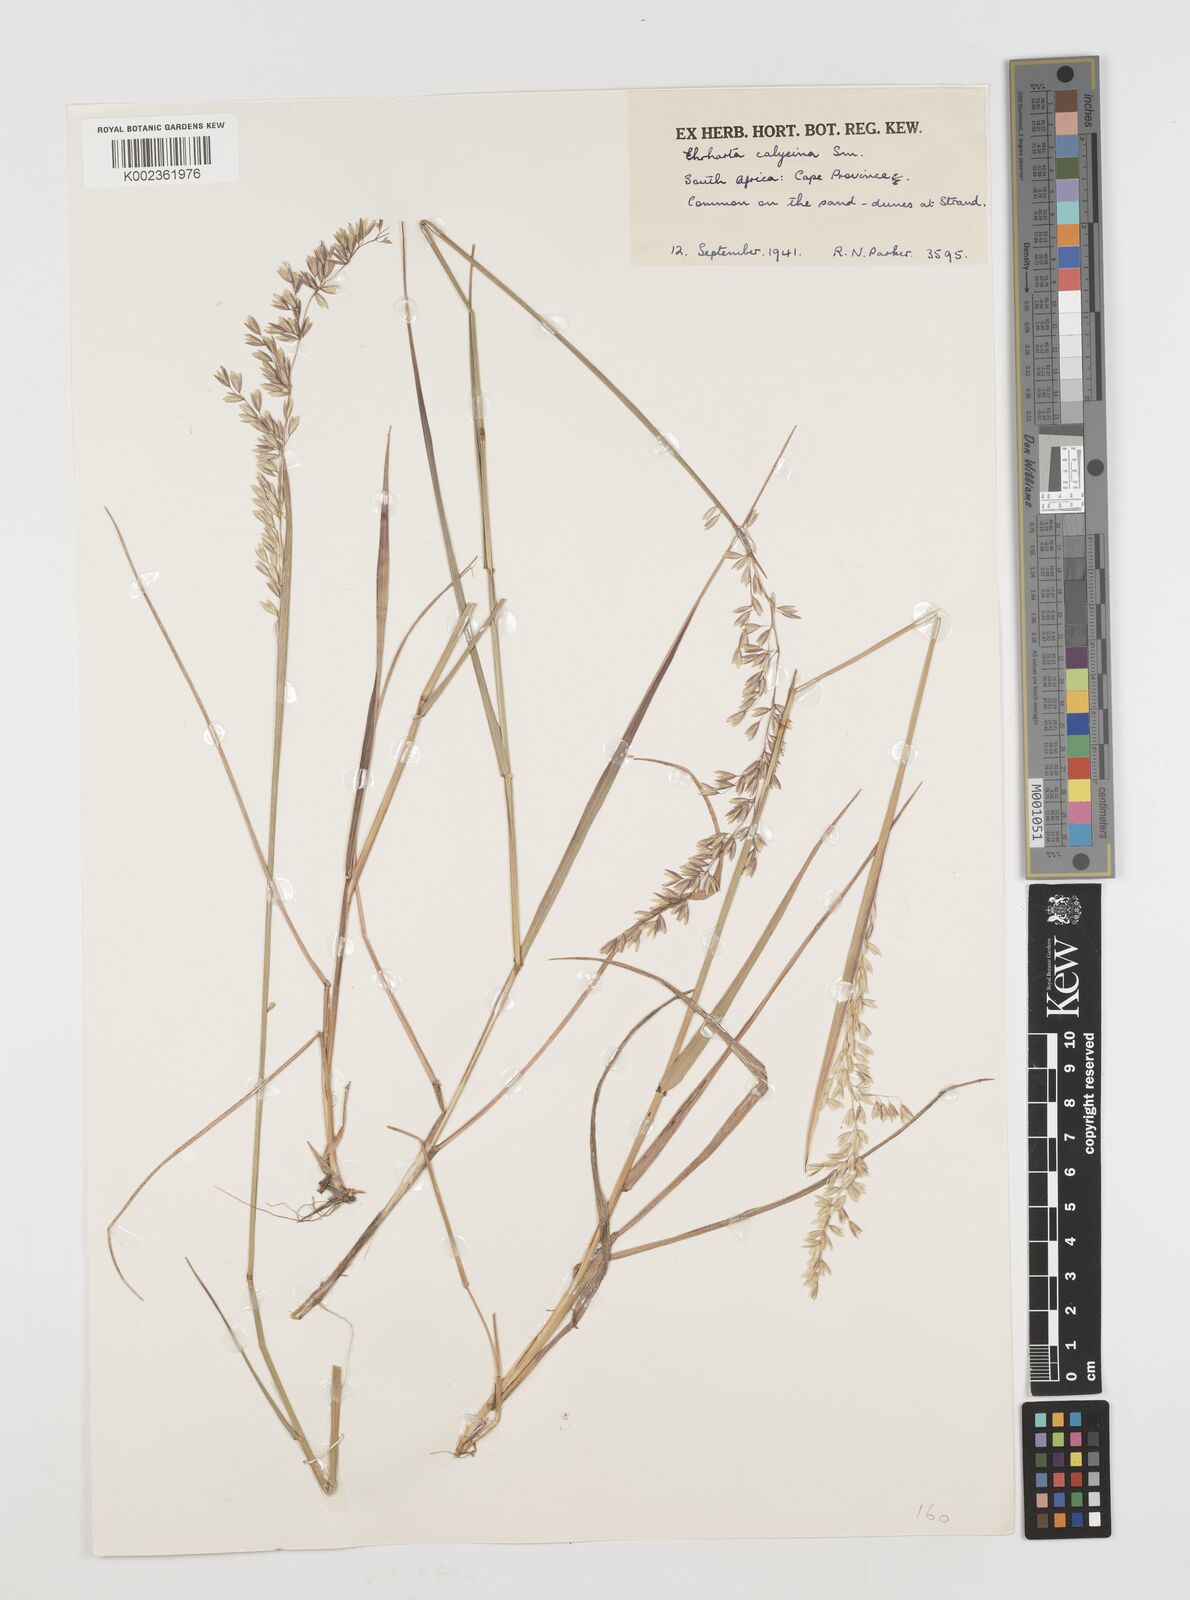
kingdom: Plantae
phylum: Tracheophyta
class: Liliopsida
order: Poales
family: Poaceae
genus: Ehrharta
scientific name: Ehrharta calycina
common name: Perennial veldtgrass
